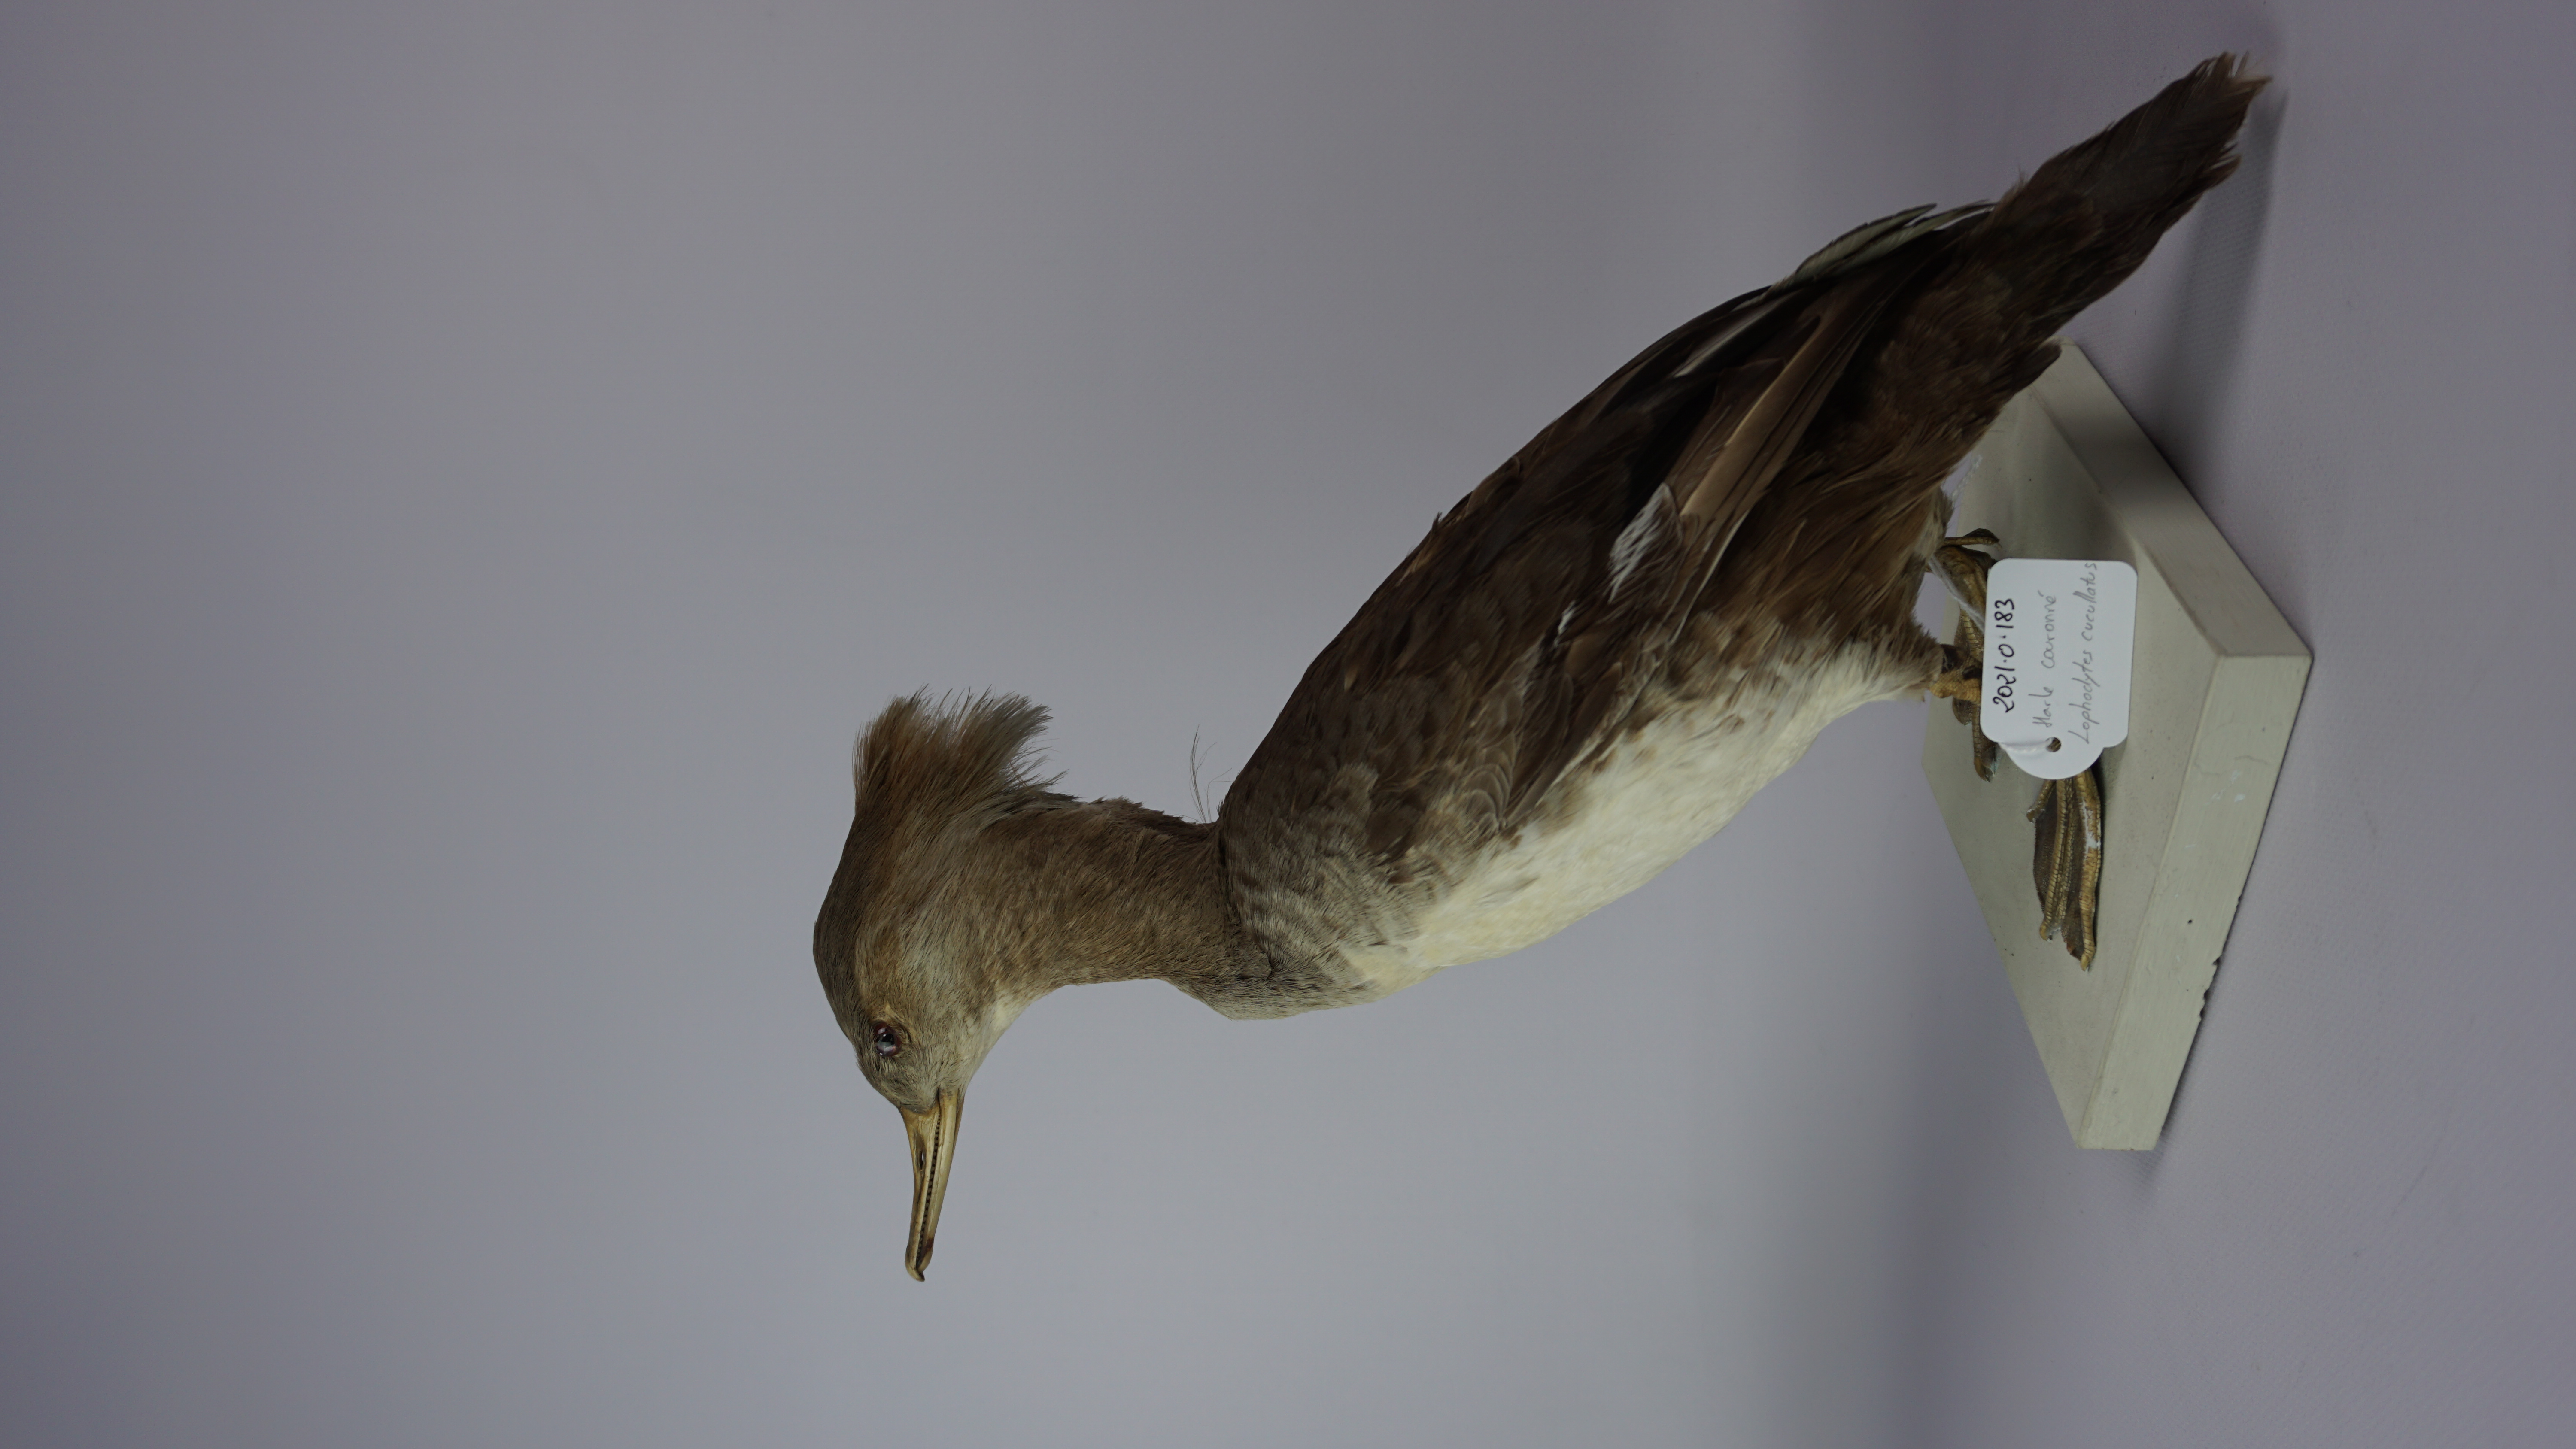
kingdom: Animalia
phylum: Chordata
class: Aves
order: Anseriformes
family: Anatidae
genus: Lophodytes
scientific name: Lophodytes cucullatus
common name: Hooded merganser
